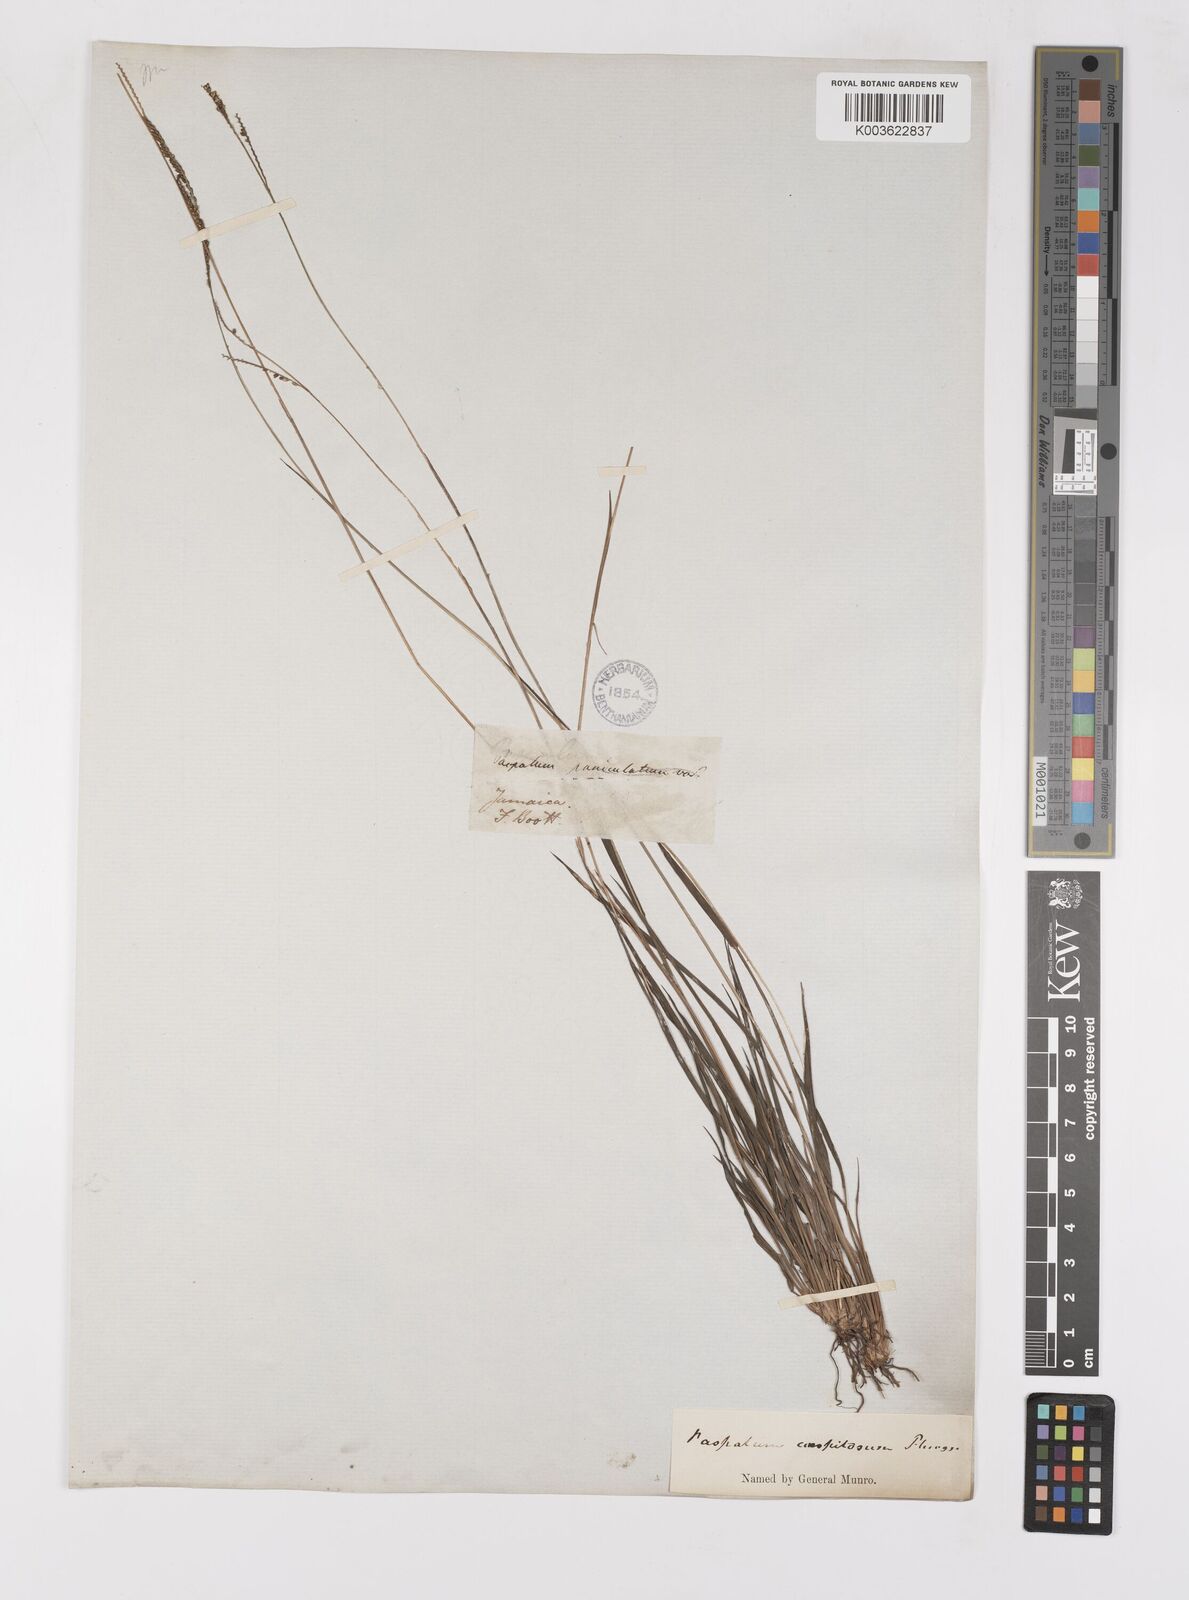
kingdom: Plantae
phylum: Tracheophyta
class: Liliopsida
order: Poales
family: Poaceae
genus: Paspalum
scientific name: Paspalum caespitosum
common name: Blue crowngrass
